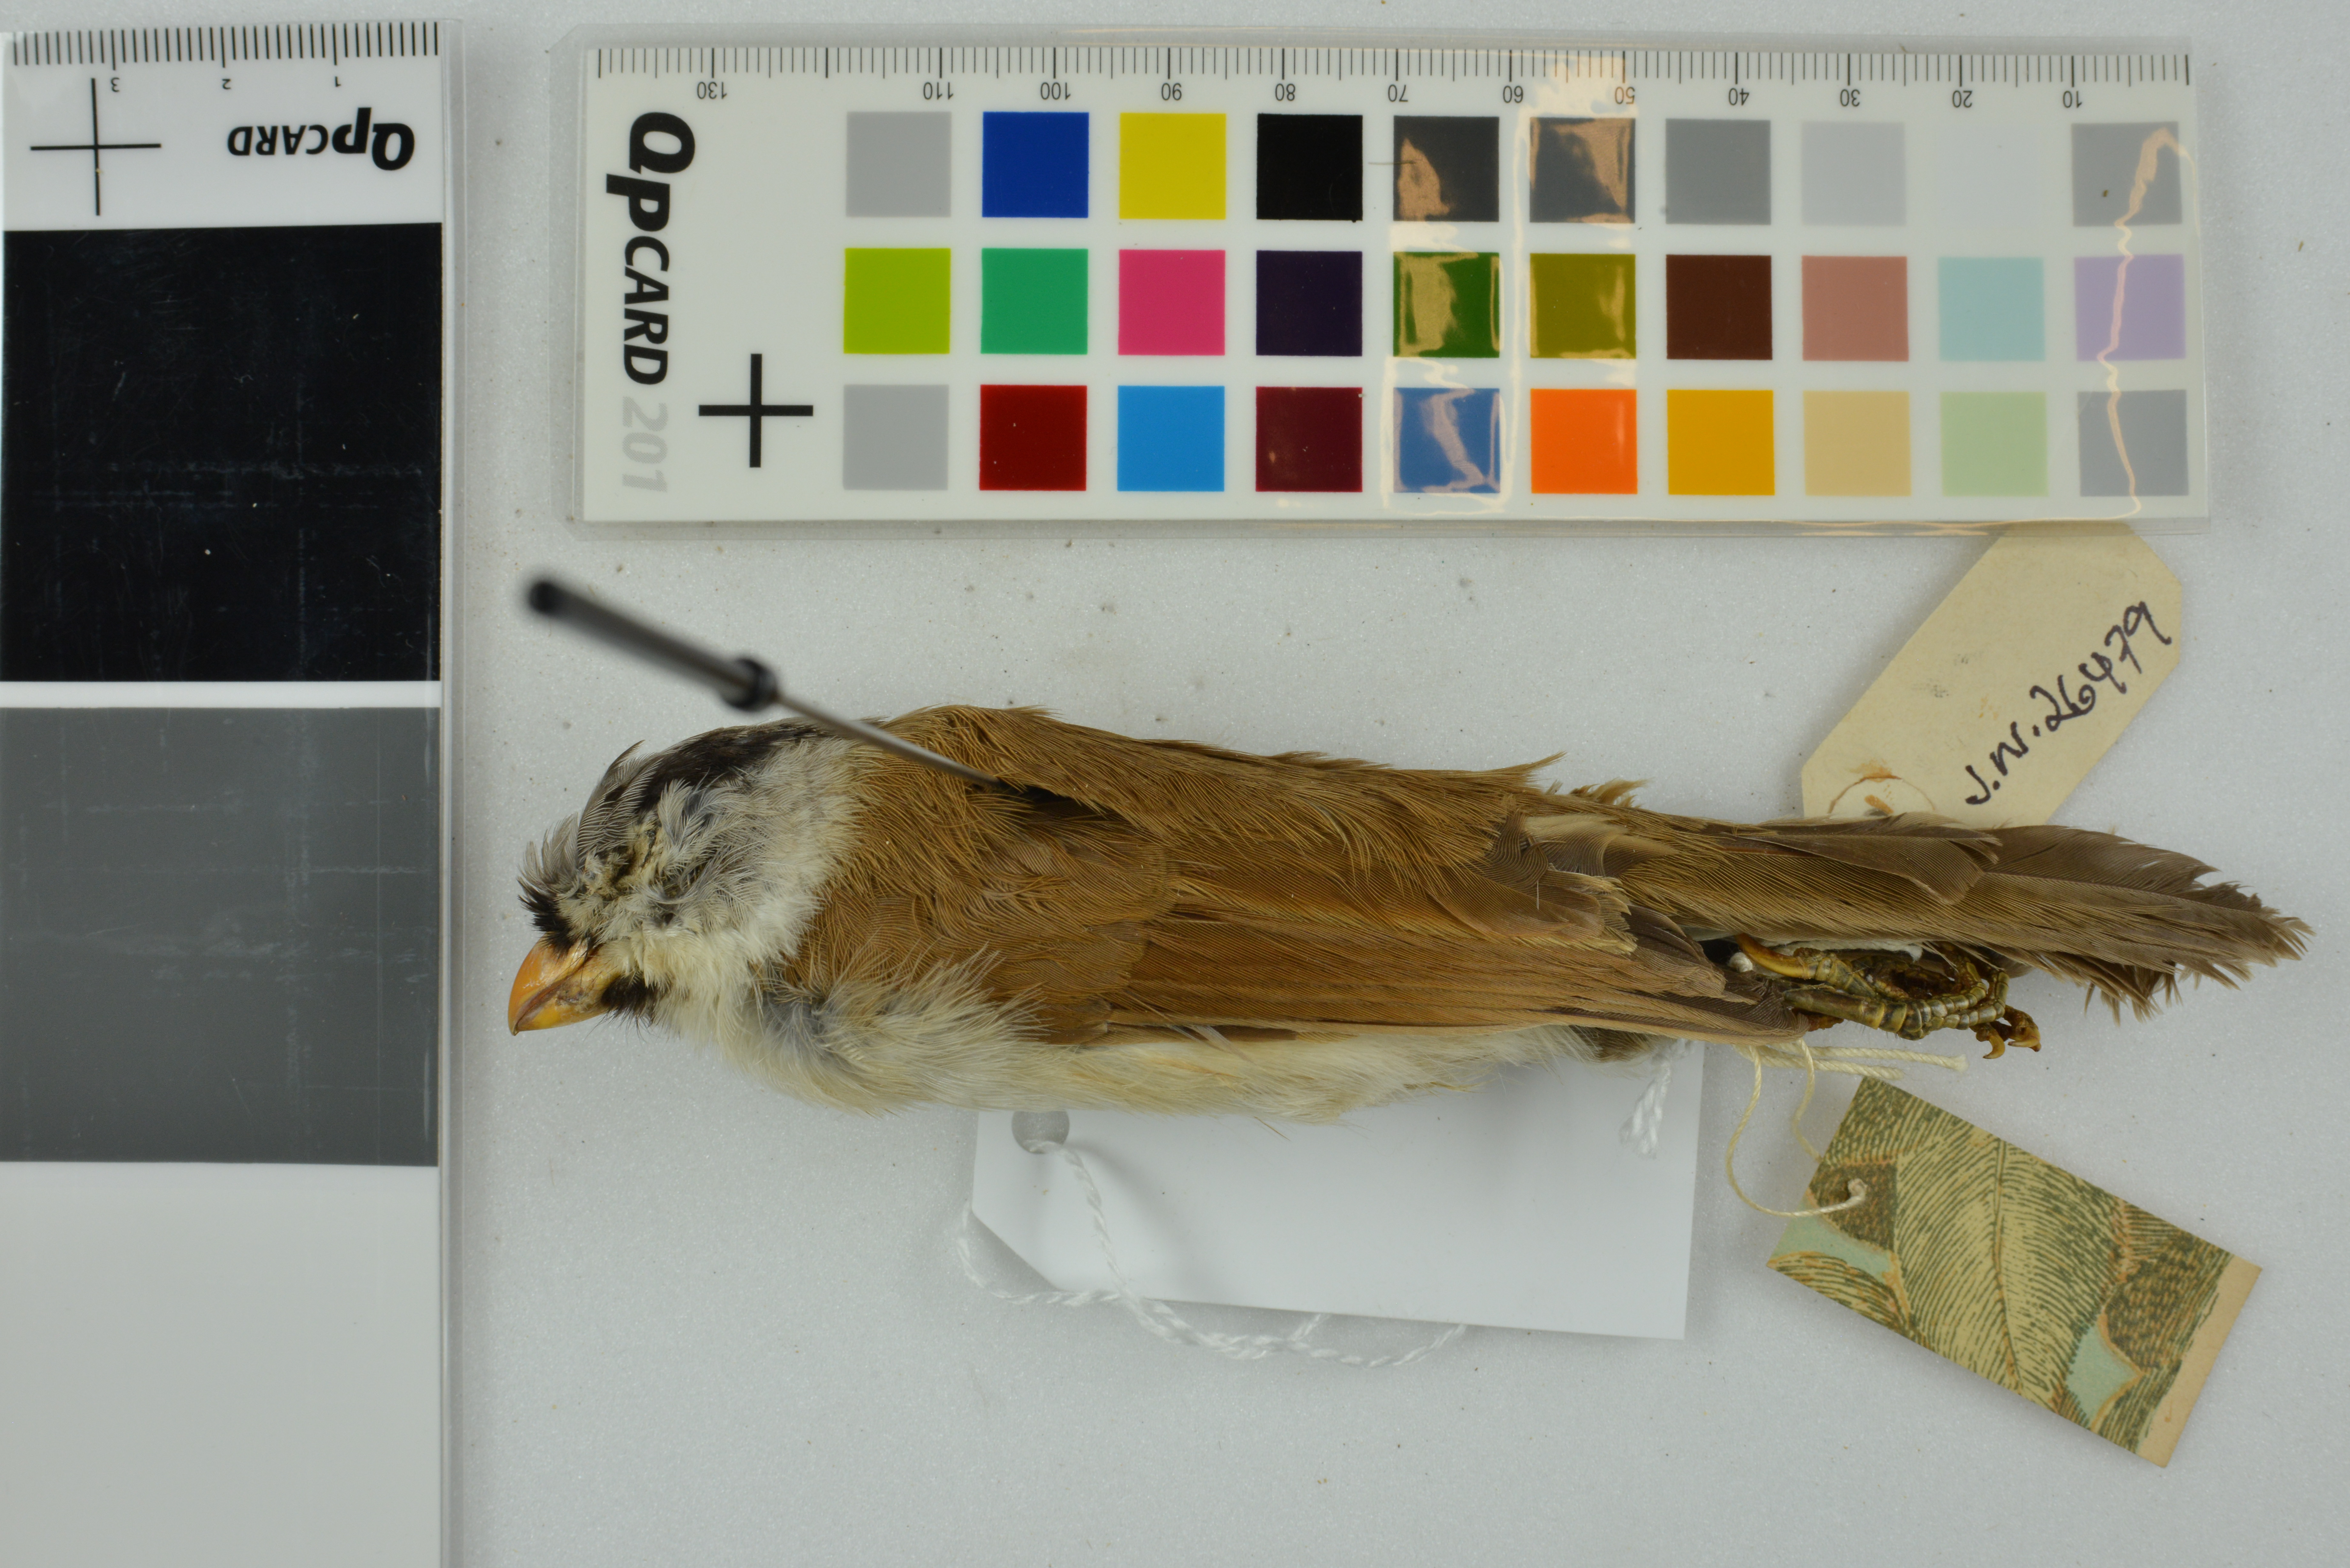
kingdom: Animalia
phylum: Chordata
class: Aves
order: Passeriformes
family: Sylviidae
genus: Psittiparus
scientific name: Psittiparus gularis
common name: Gray-headed parrotbill
